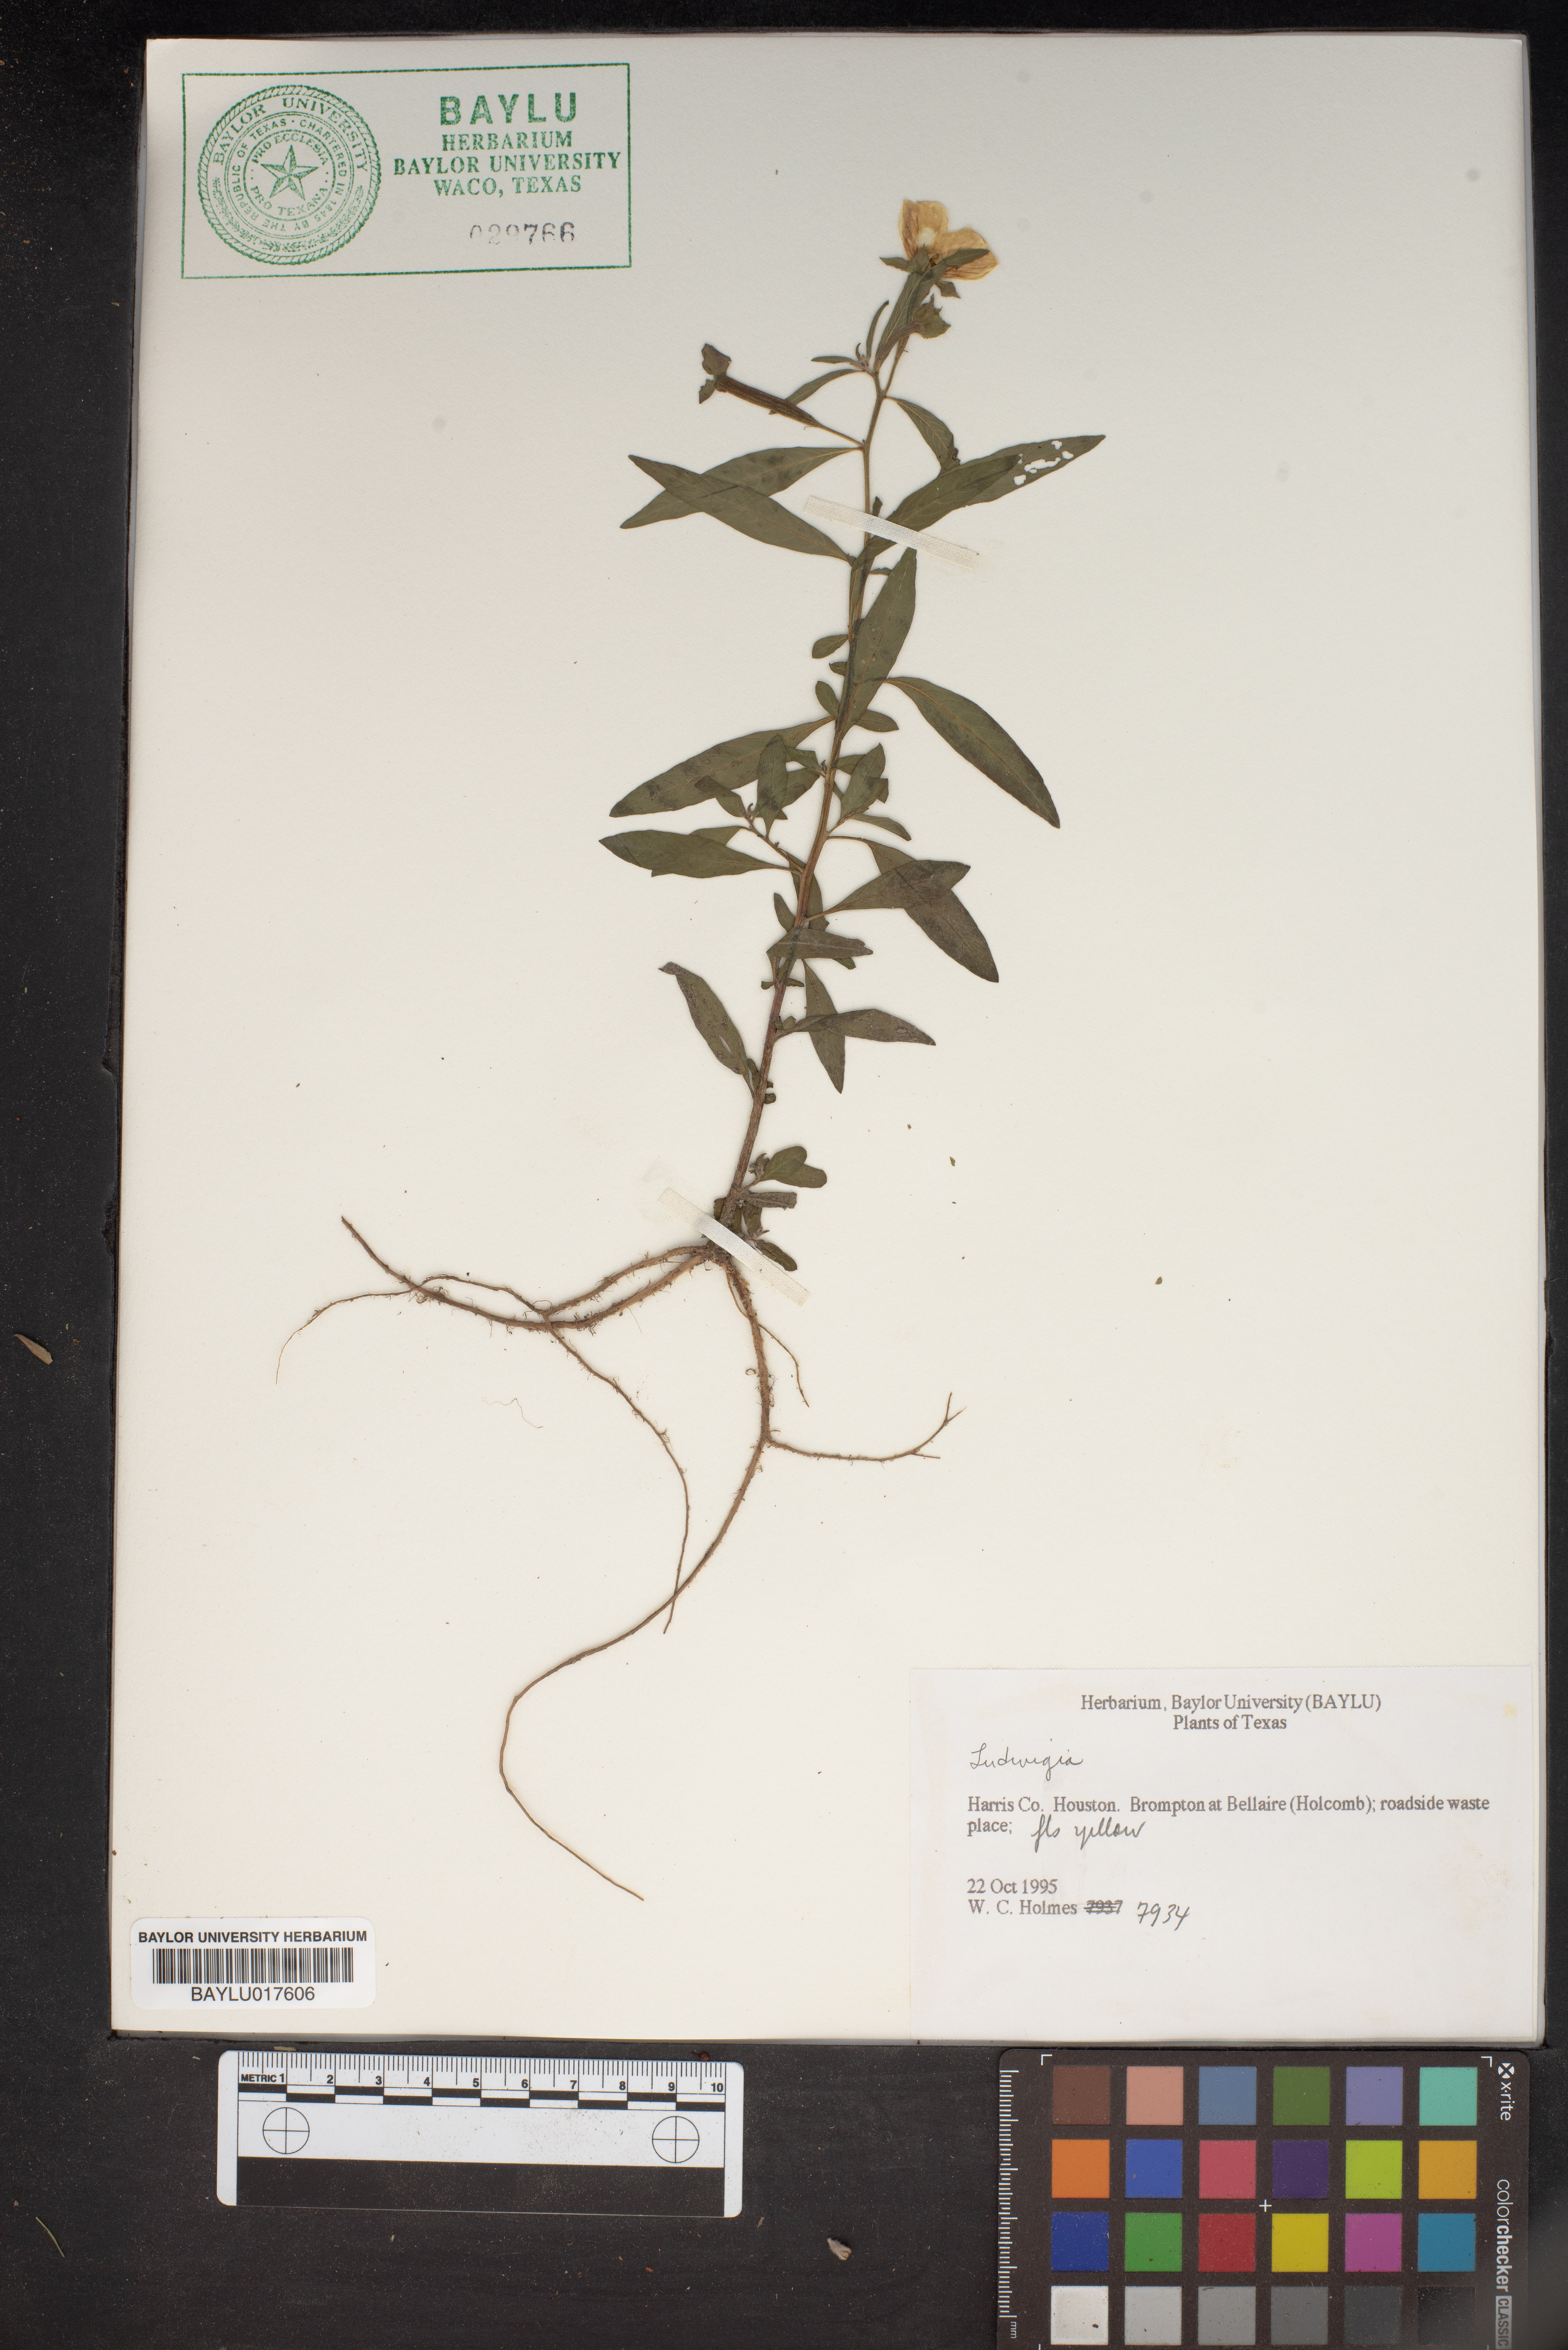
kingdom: Plantae
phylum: Tracheophyta
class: Magnoliopsida
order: Myrtales
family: Onagraceae
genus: Ludwigia
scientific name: Ludwigia
